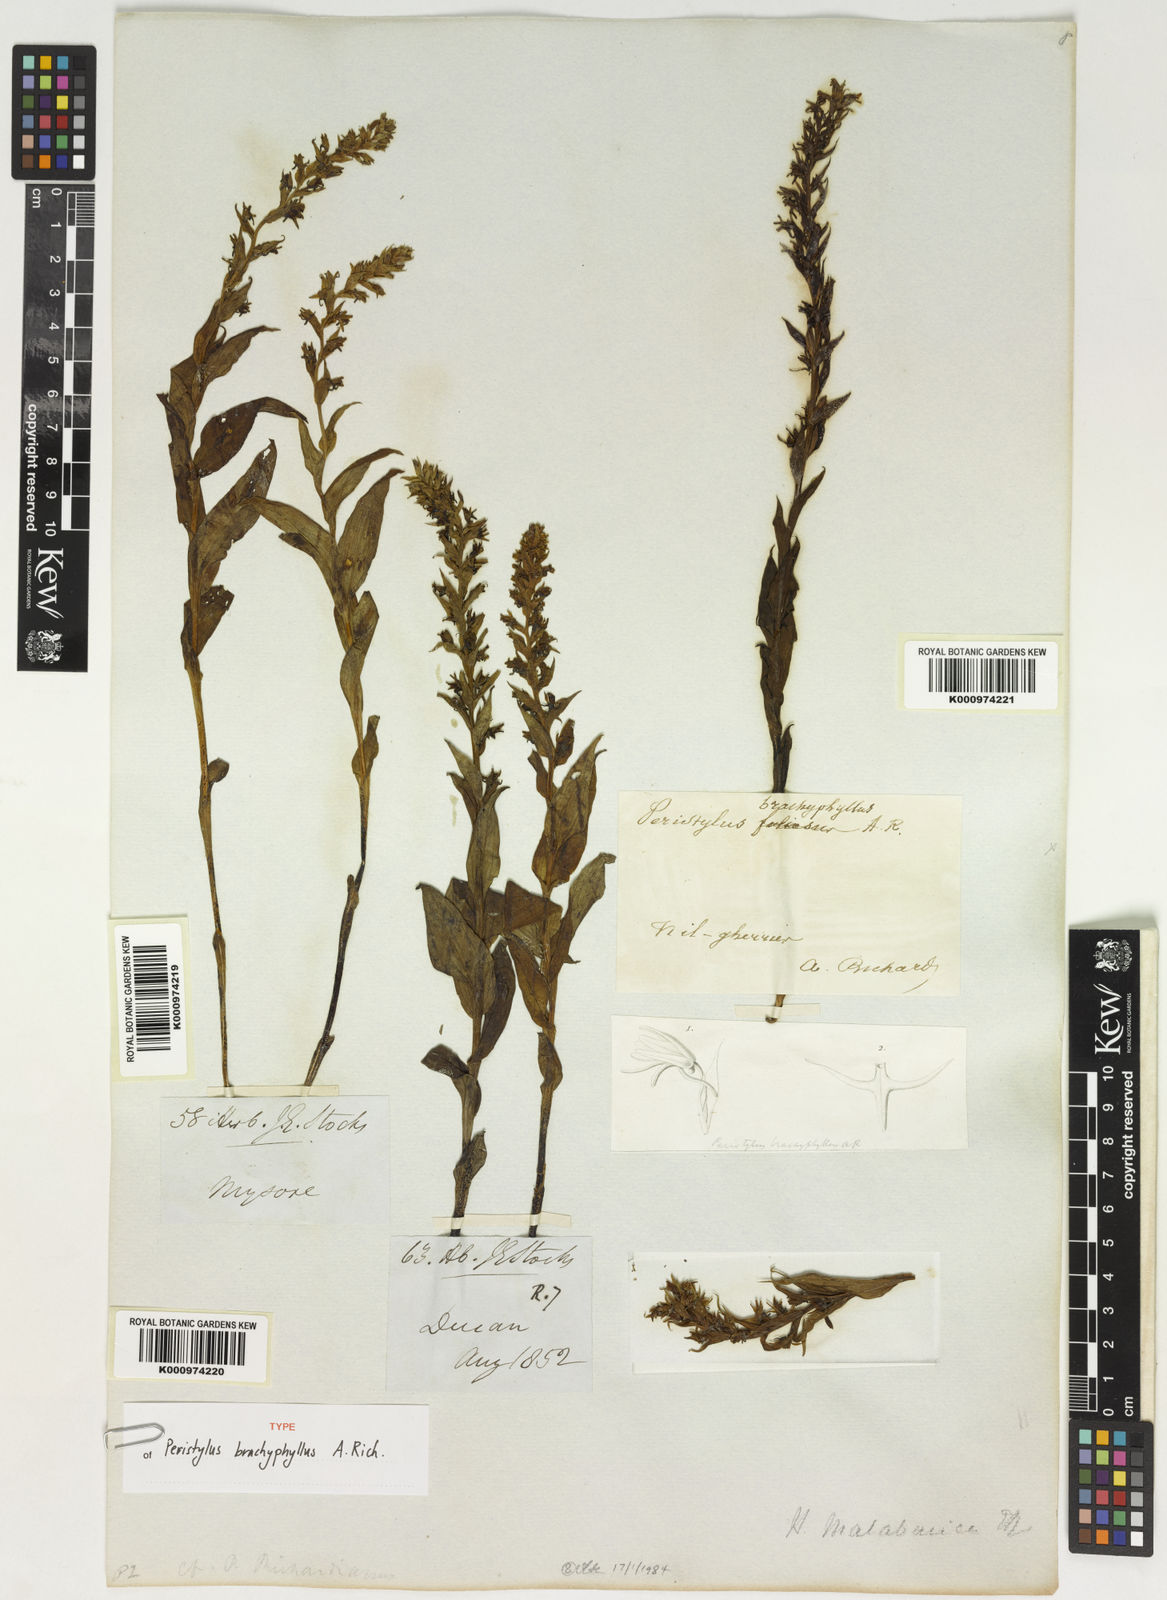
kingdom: Plantae
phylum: Tracheophyta
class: Liliopsida
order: Asparagales
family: Orchidaceae
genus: Peristylus
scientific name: Peristylus brachypyhllus
